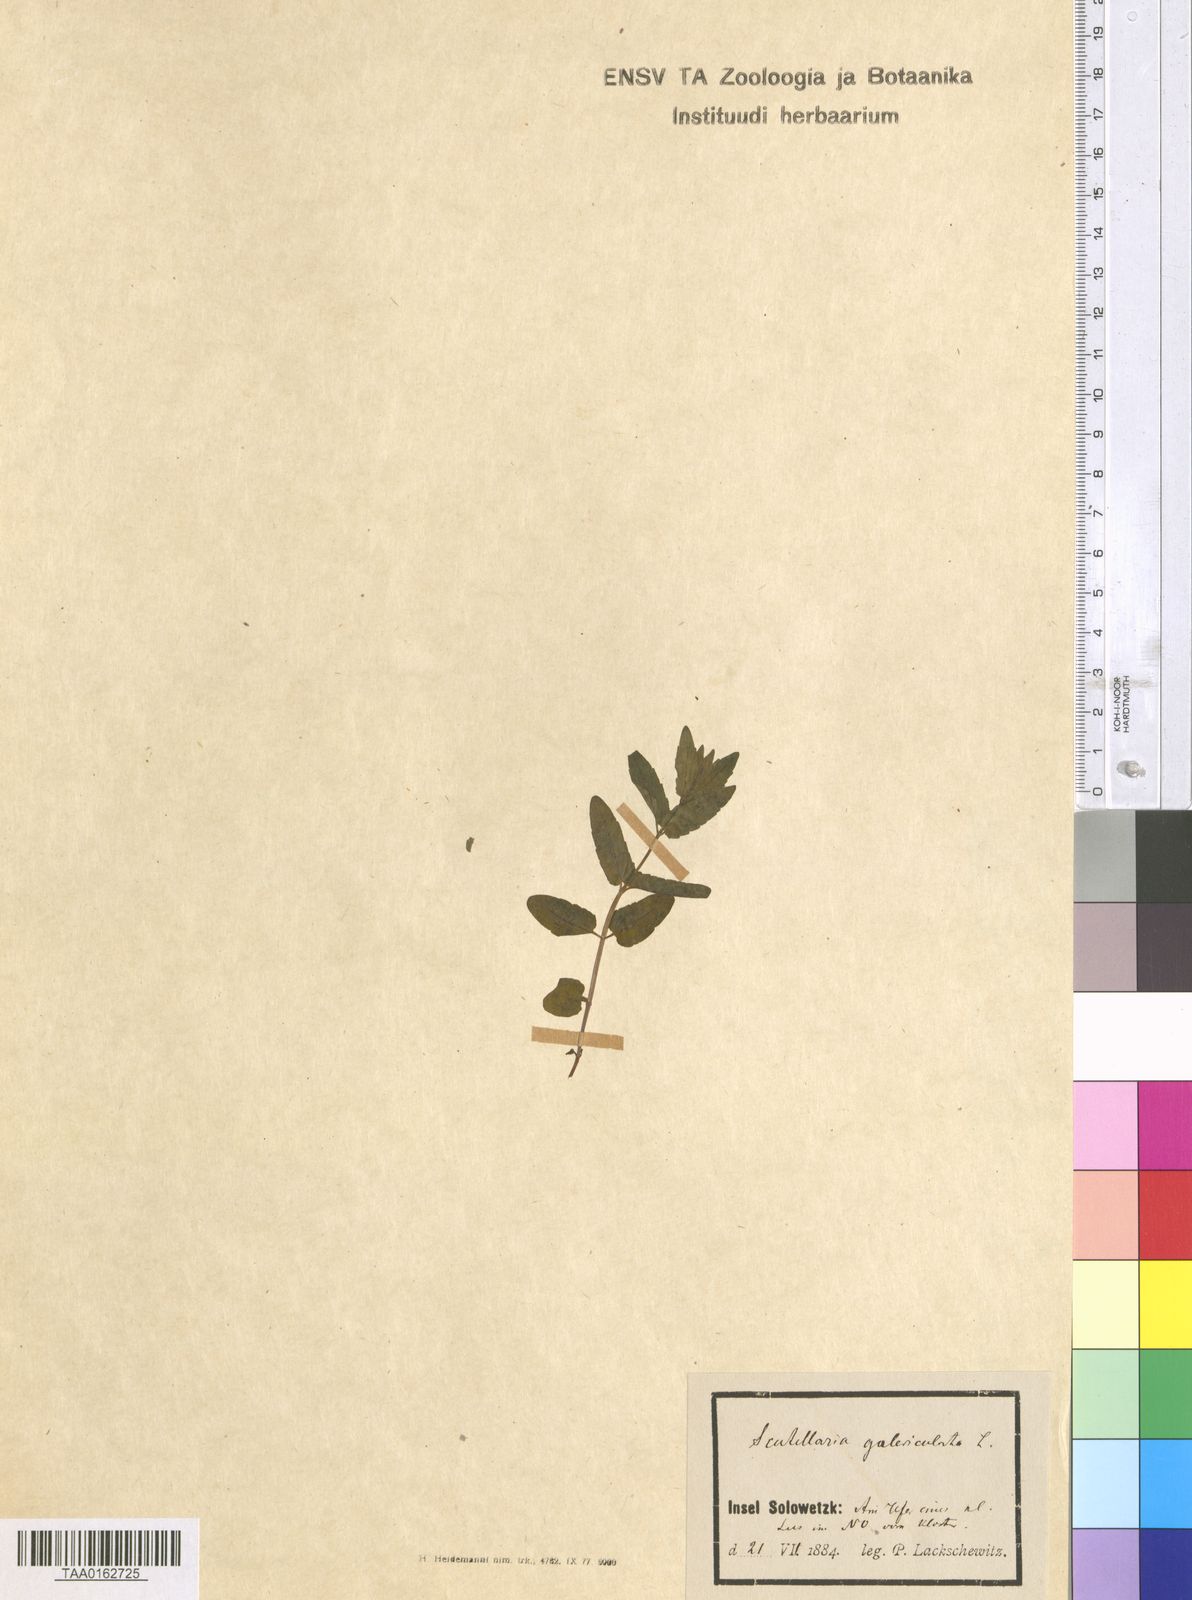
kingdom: Plantae
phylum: Tracheophyta
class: Magnoliopsida
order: Lamiales
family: Lamiaceae
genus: Scutellaria
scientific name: Scutellaria galericulata
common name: Skullcap
